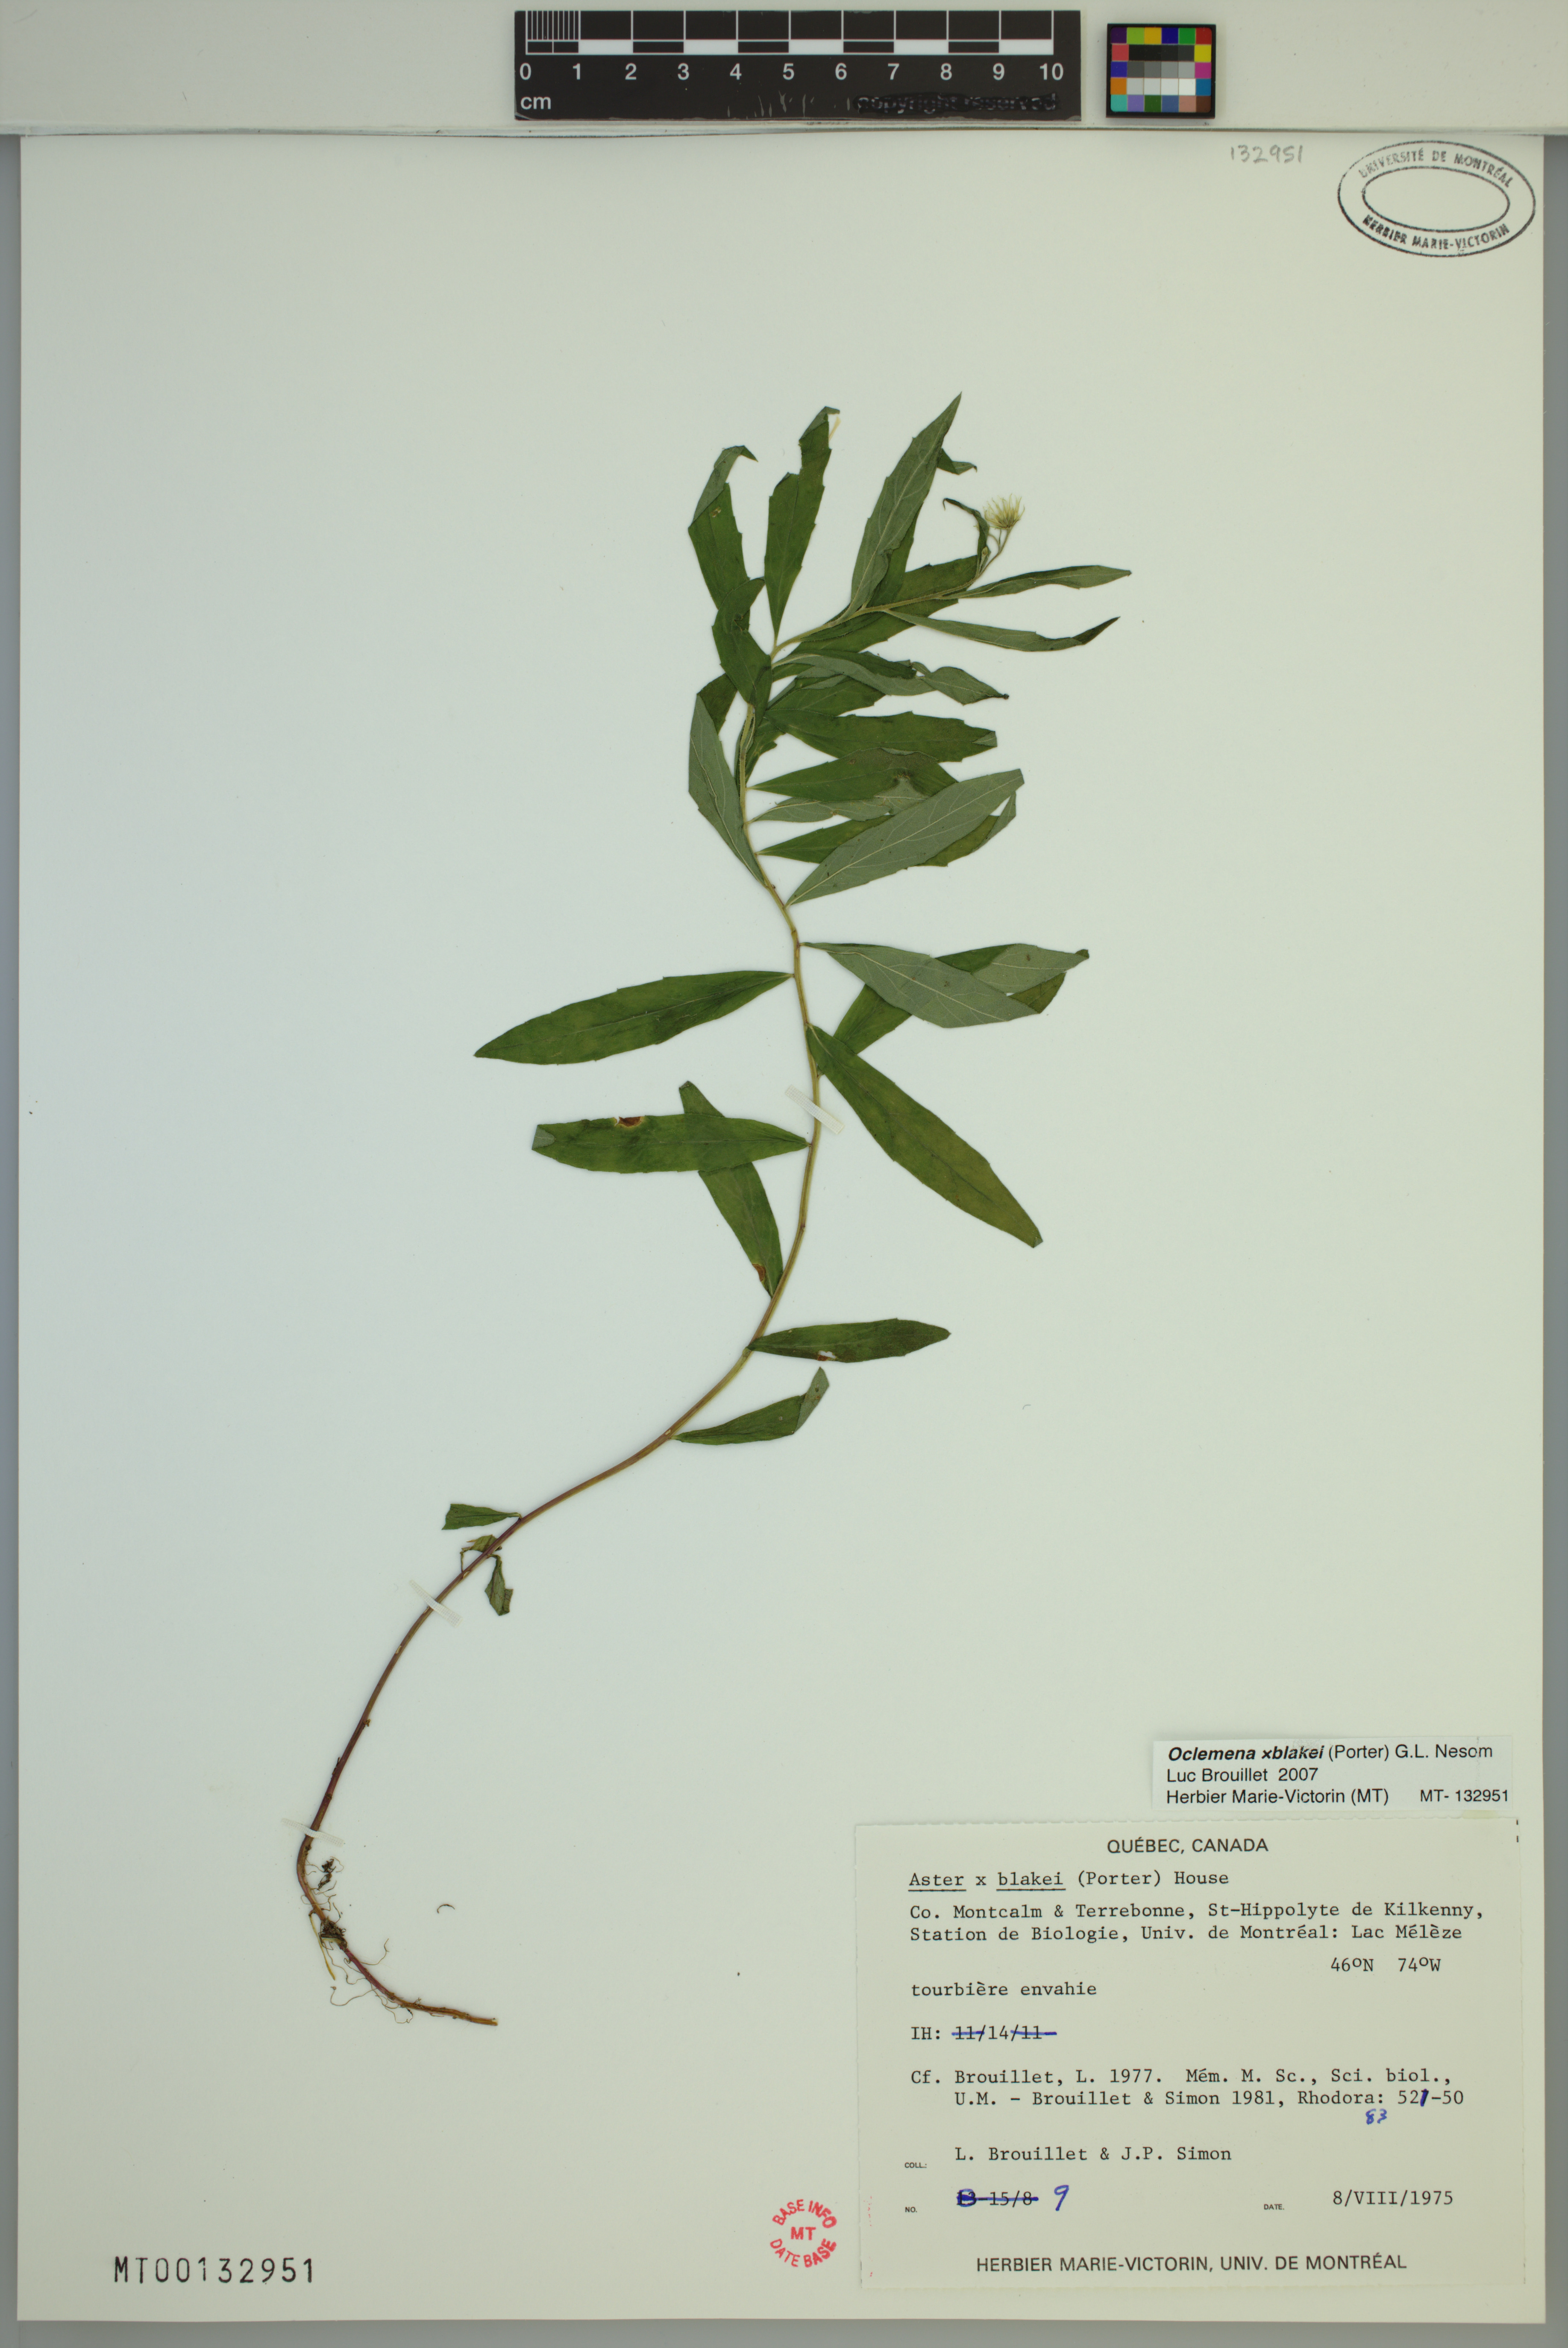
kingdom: Plantae
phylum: Tracheophyta
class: Magnoliopsida
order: Asterales
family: Asteraceae
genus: Oclemena
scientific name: Oclemena blakei
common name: Blake's aster
